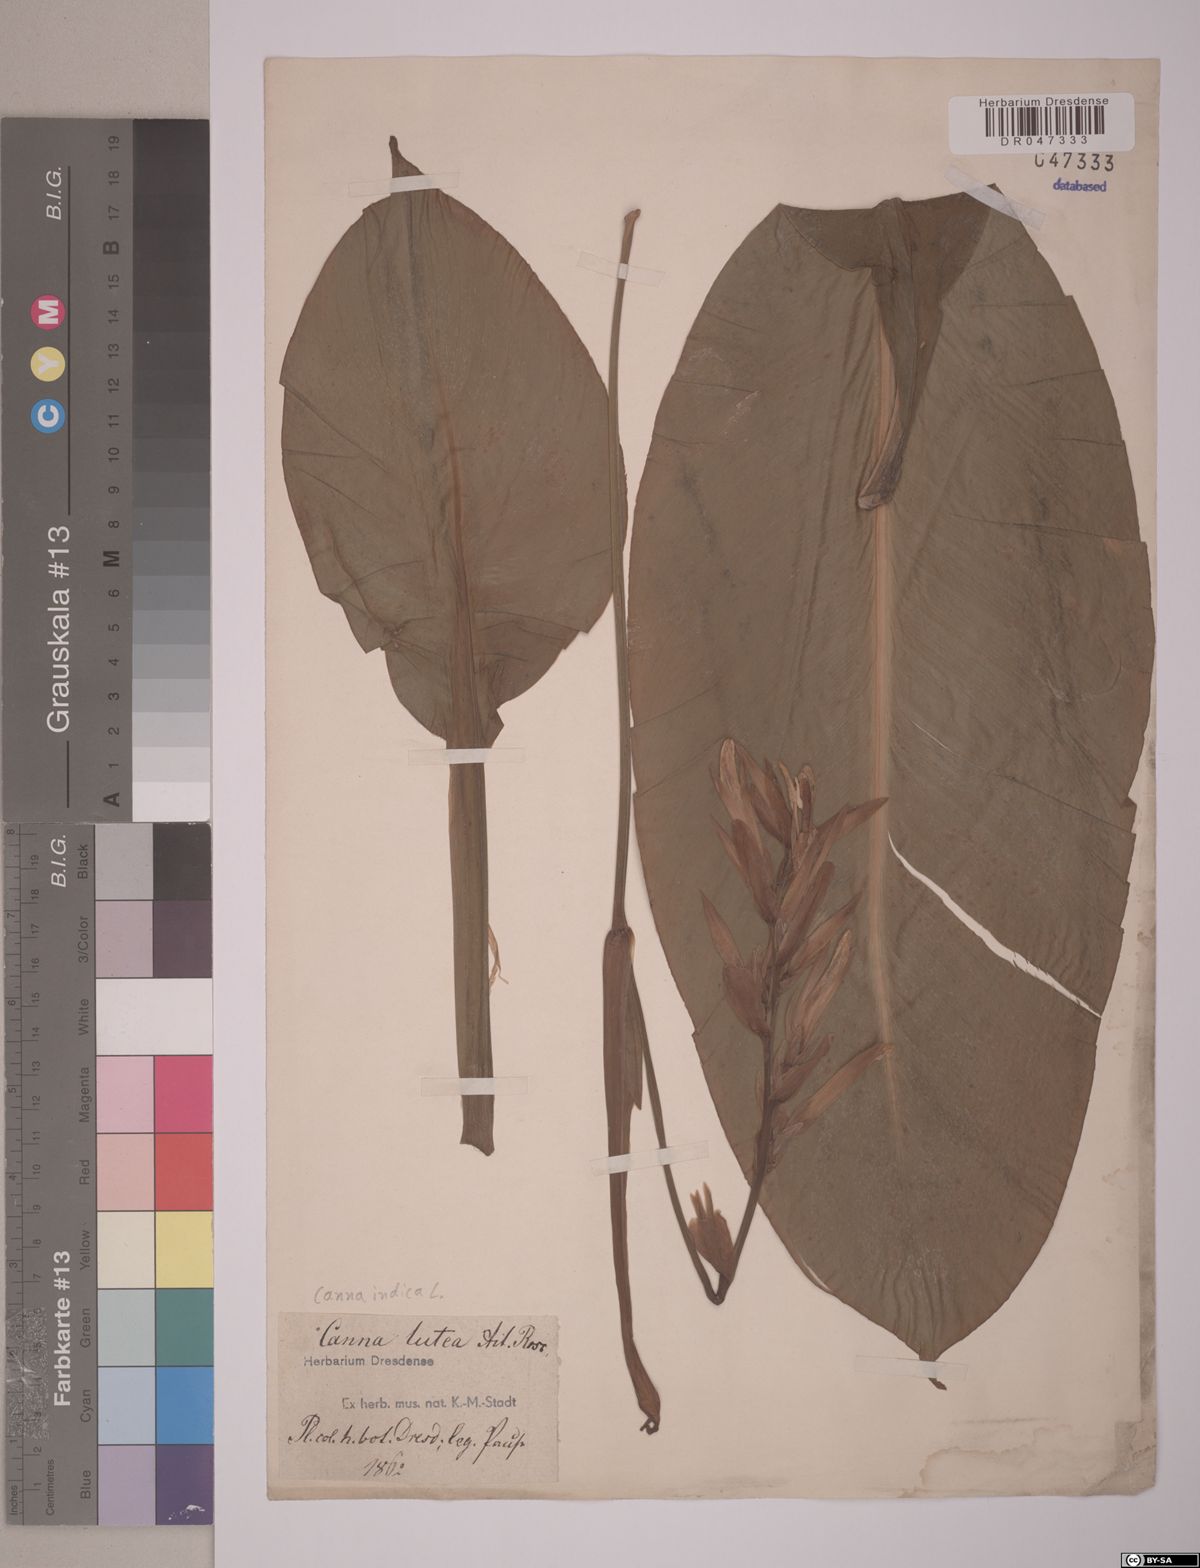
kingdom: Plantae
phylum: Tracheophyta
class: Liliopsida
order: Zingiberales
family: Cannaceae
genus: Canna
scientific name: Canna indica
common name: Indian shot
